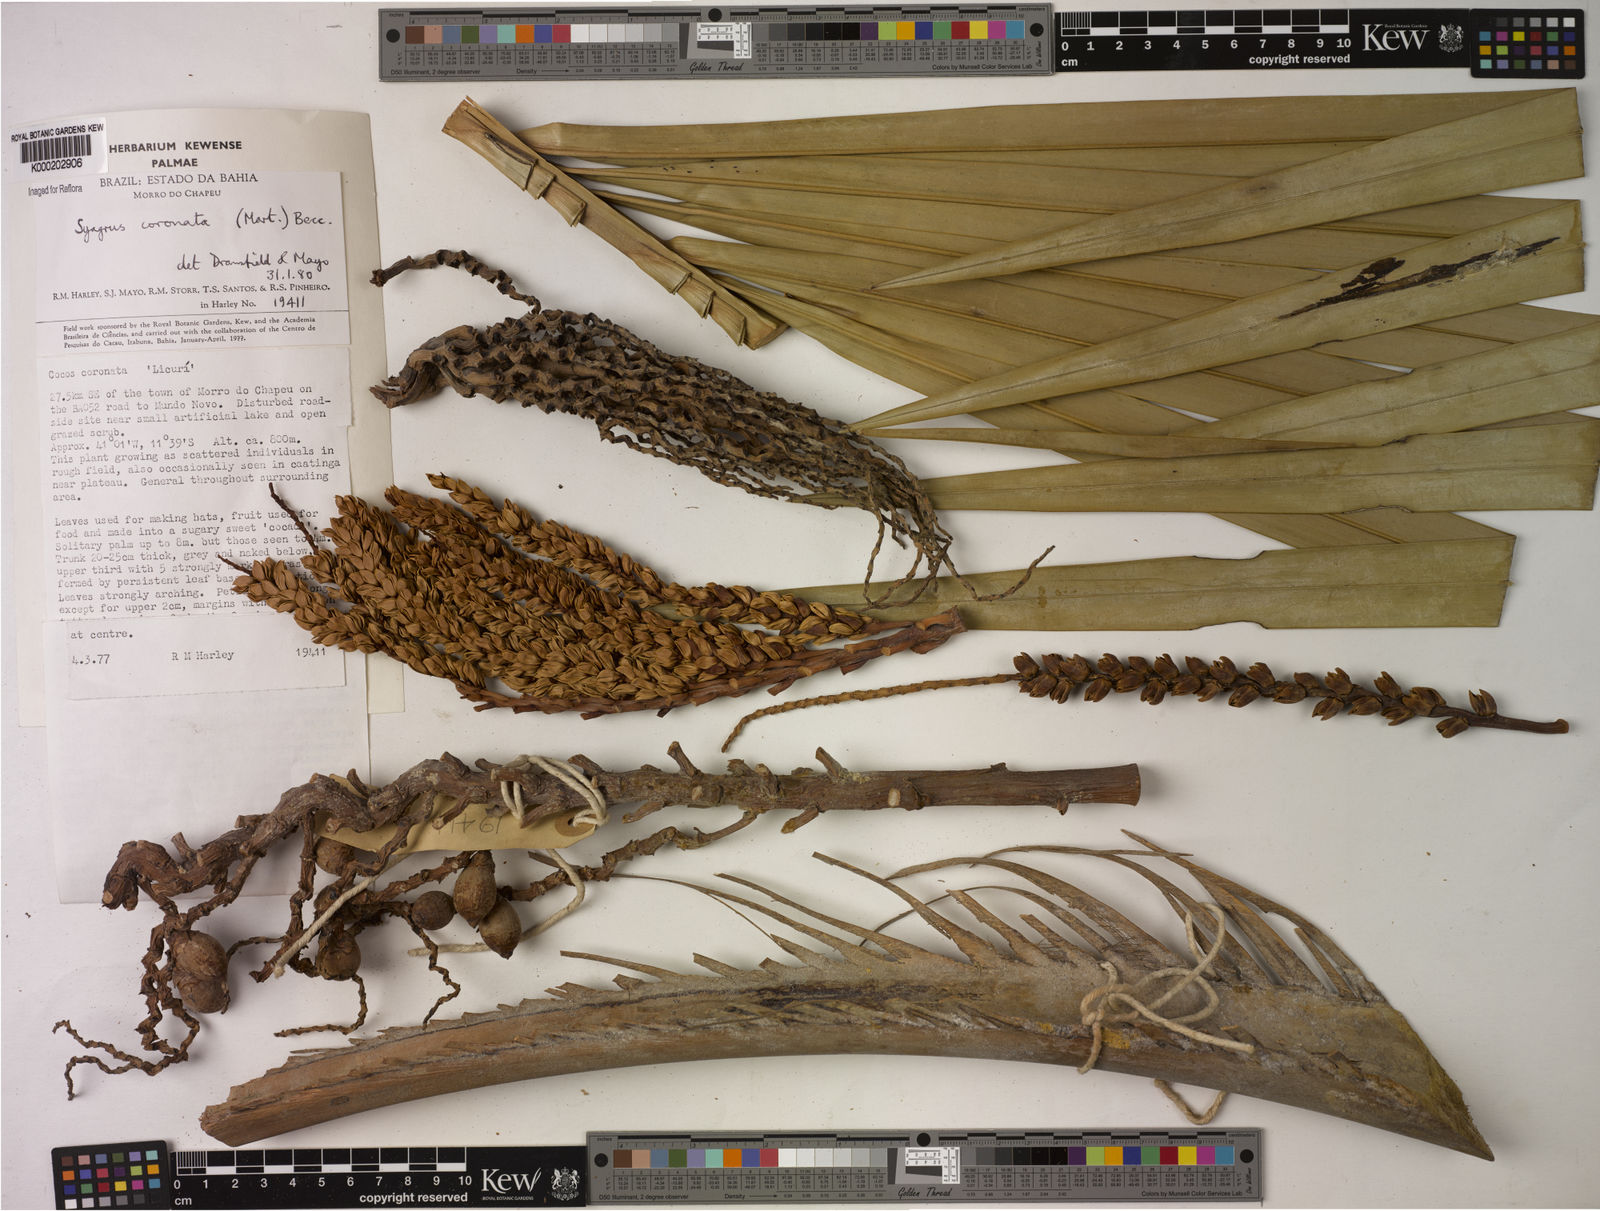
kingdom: Plantae
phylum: Tracheophyta
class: Liliopsida
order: Arecales
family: Arecaceae
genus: Syagrus
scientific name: Syagrus coronata
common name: Licuri palm
